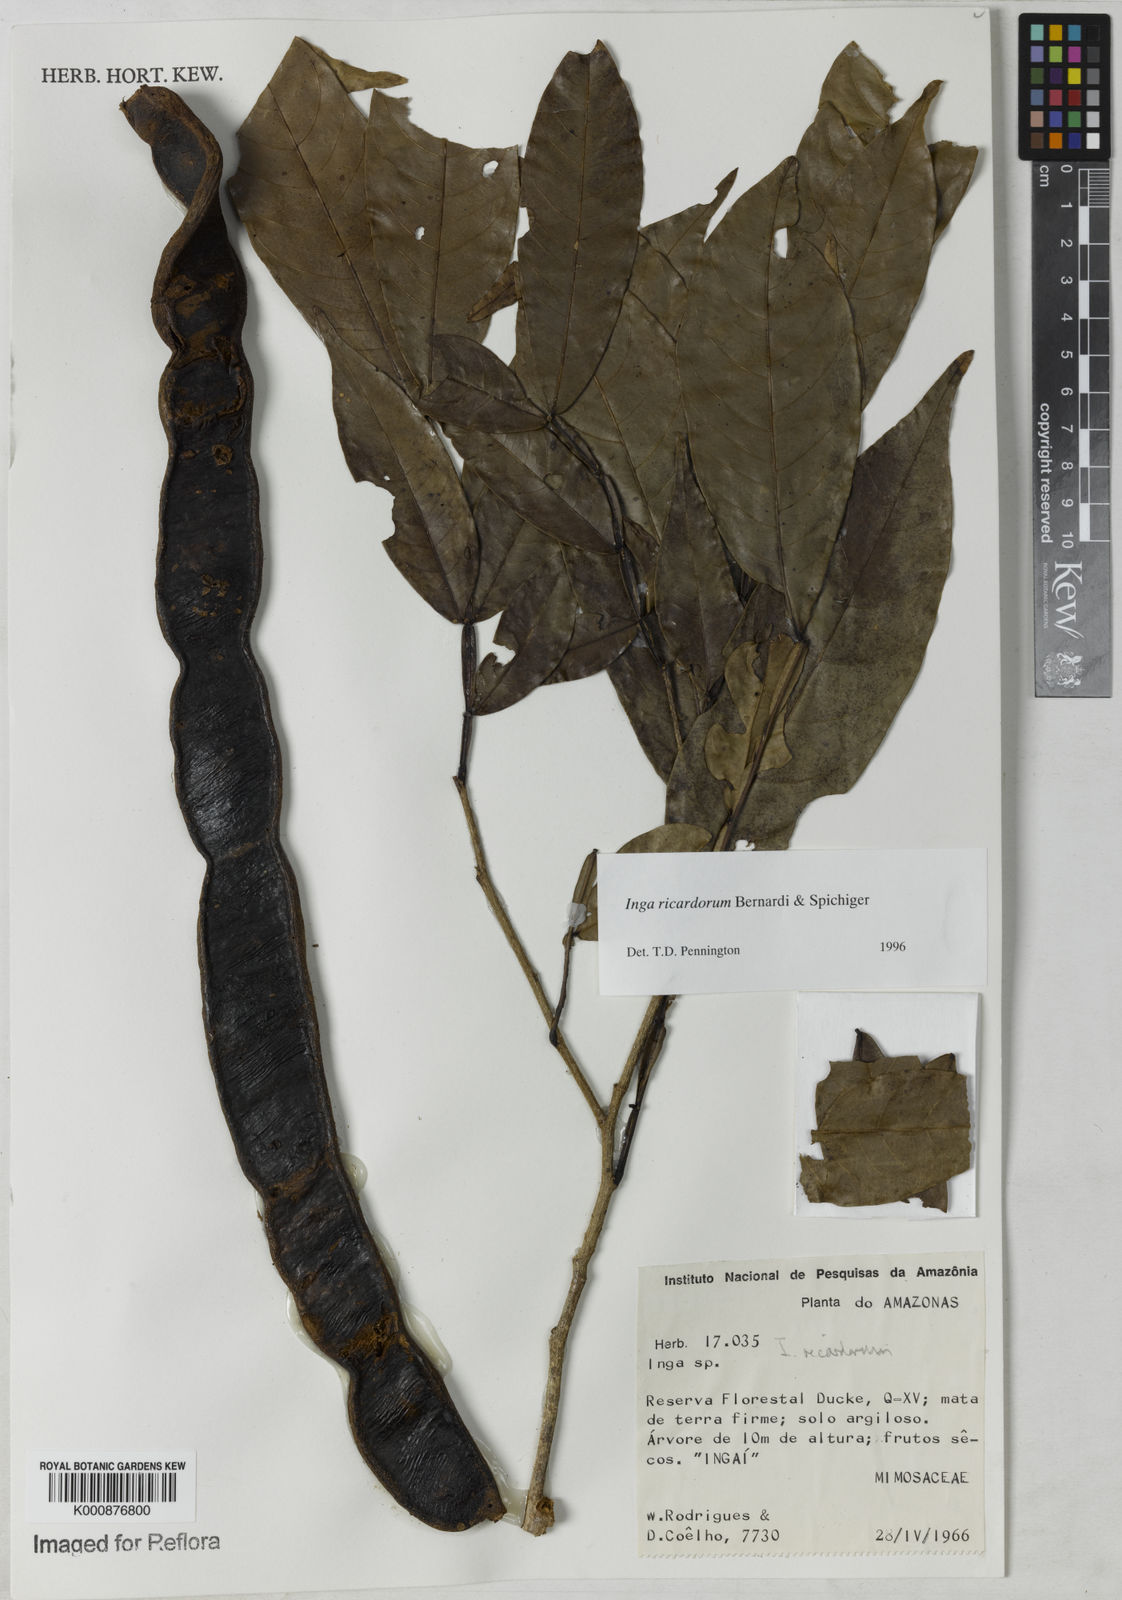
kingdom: Plantae
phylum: Tracheophyta
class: Magnoliopsida
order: Fabales
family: Fabaceae
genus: Inga
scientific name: Inga chrysantha
